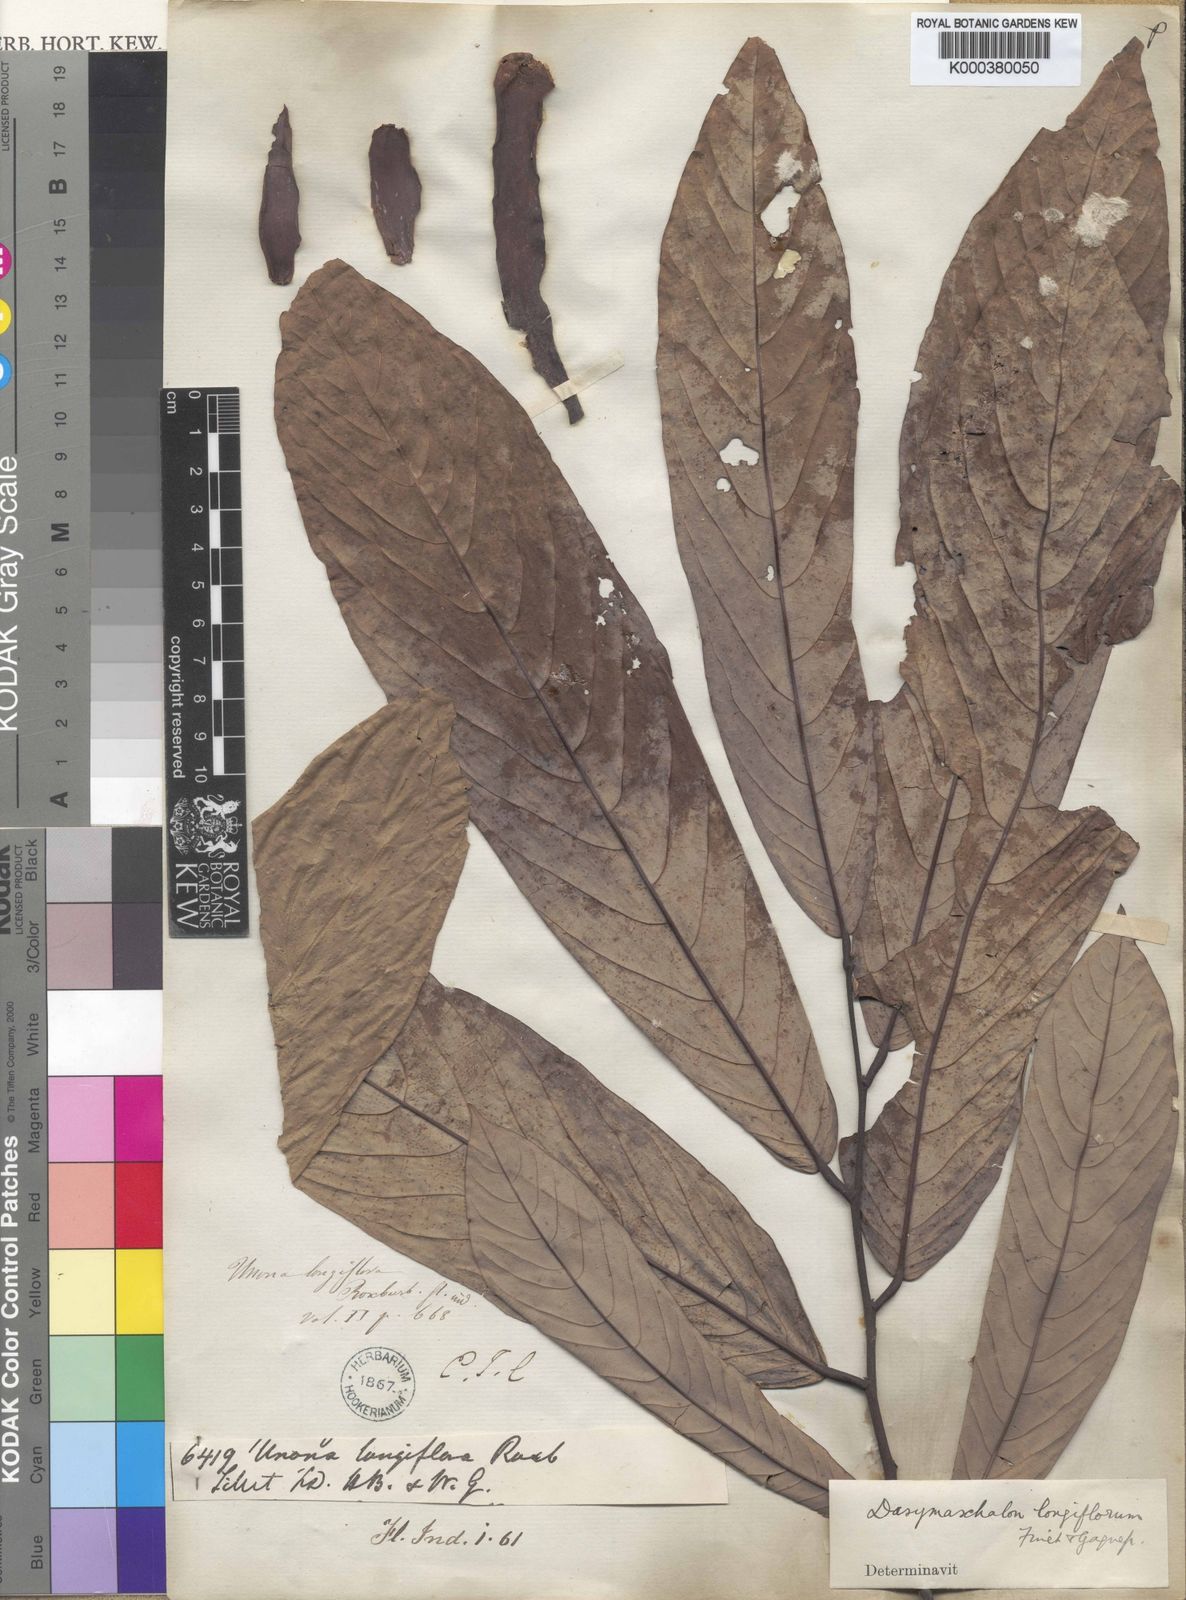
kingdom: Plantae
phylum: Tracheophyta
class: Magnoliopsida
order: Magnoliales
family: Annonaceae
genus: Dasymaschalon
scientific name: Dasymaschalon longiflorum
